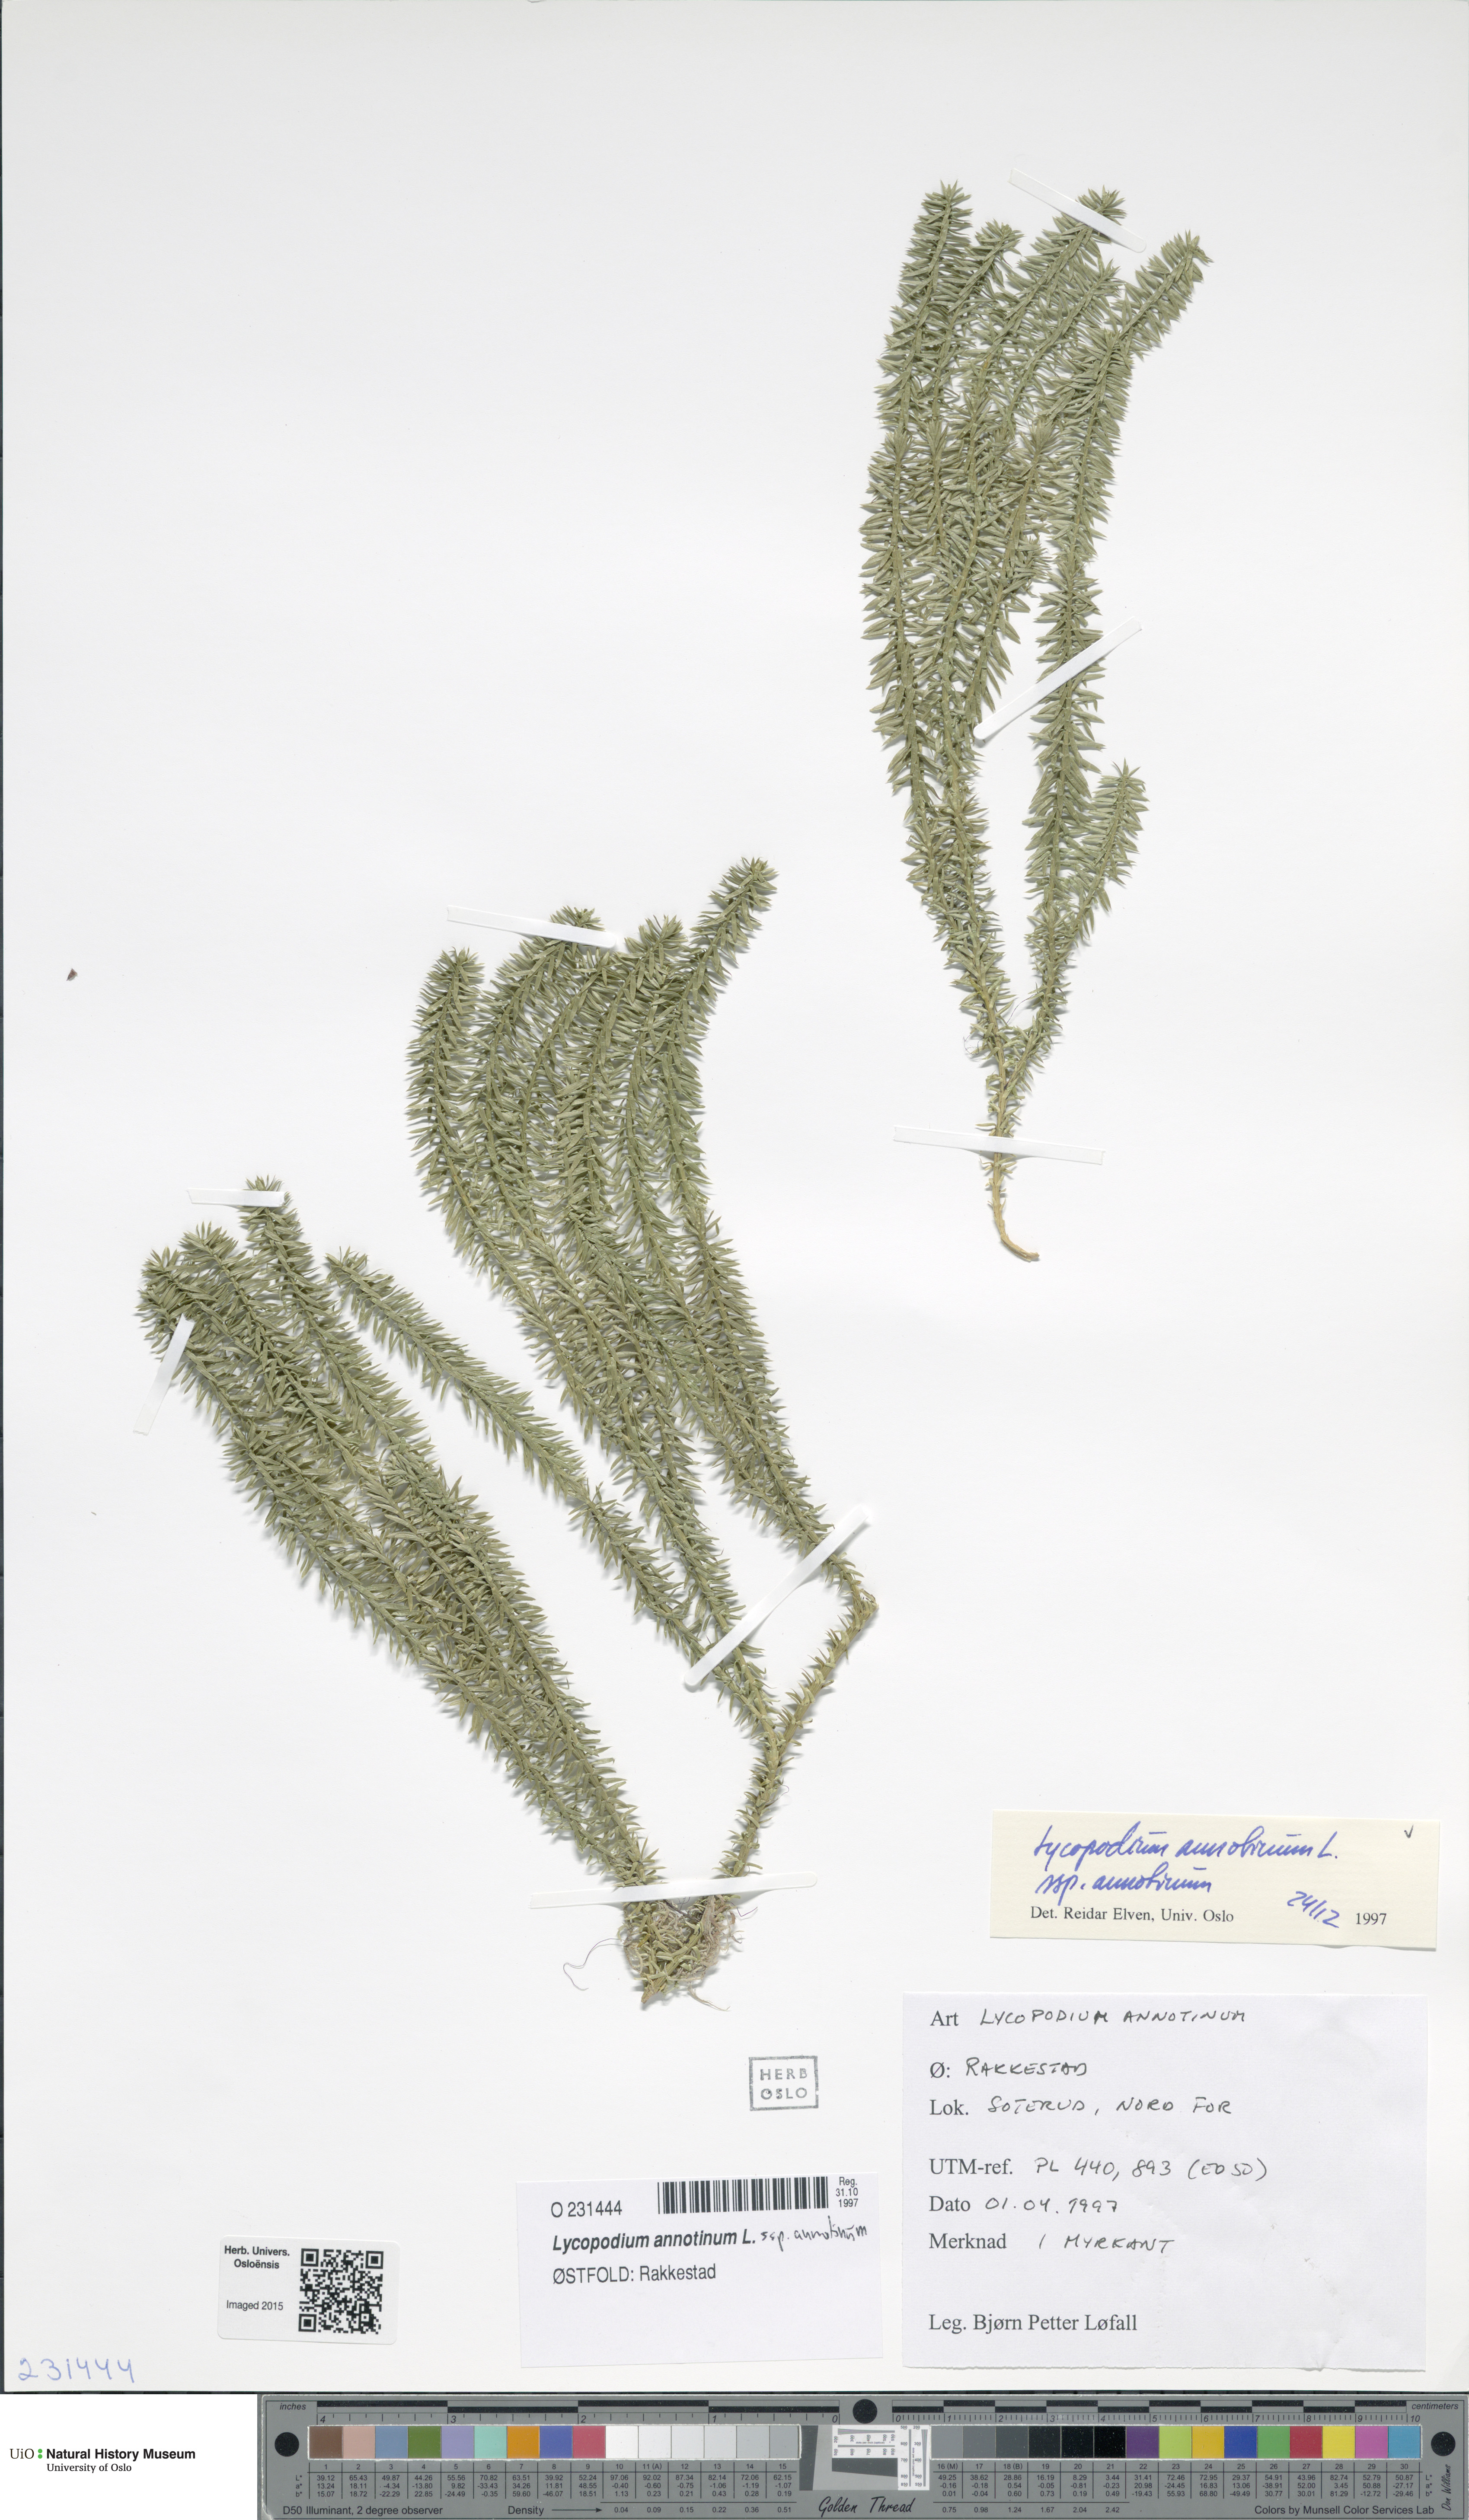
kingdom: Plantae
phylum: Tracheophyta
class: Lycopodiopsida
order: Lycopodiales
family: Lycopodiaceae
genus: Spinulum
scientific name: Spinulum annotinum
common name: Interrupted club-moss
